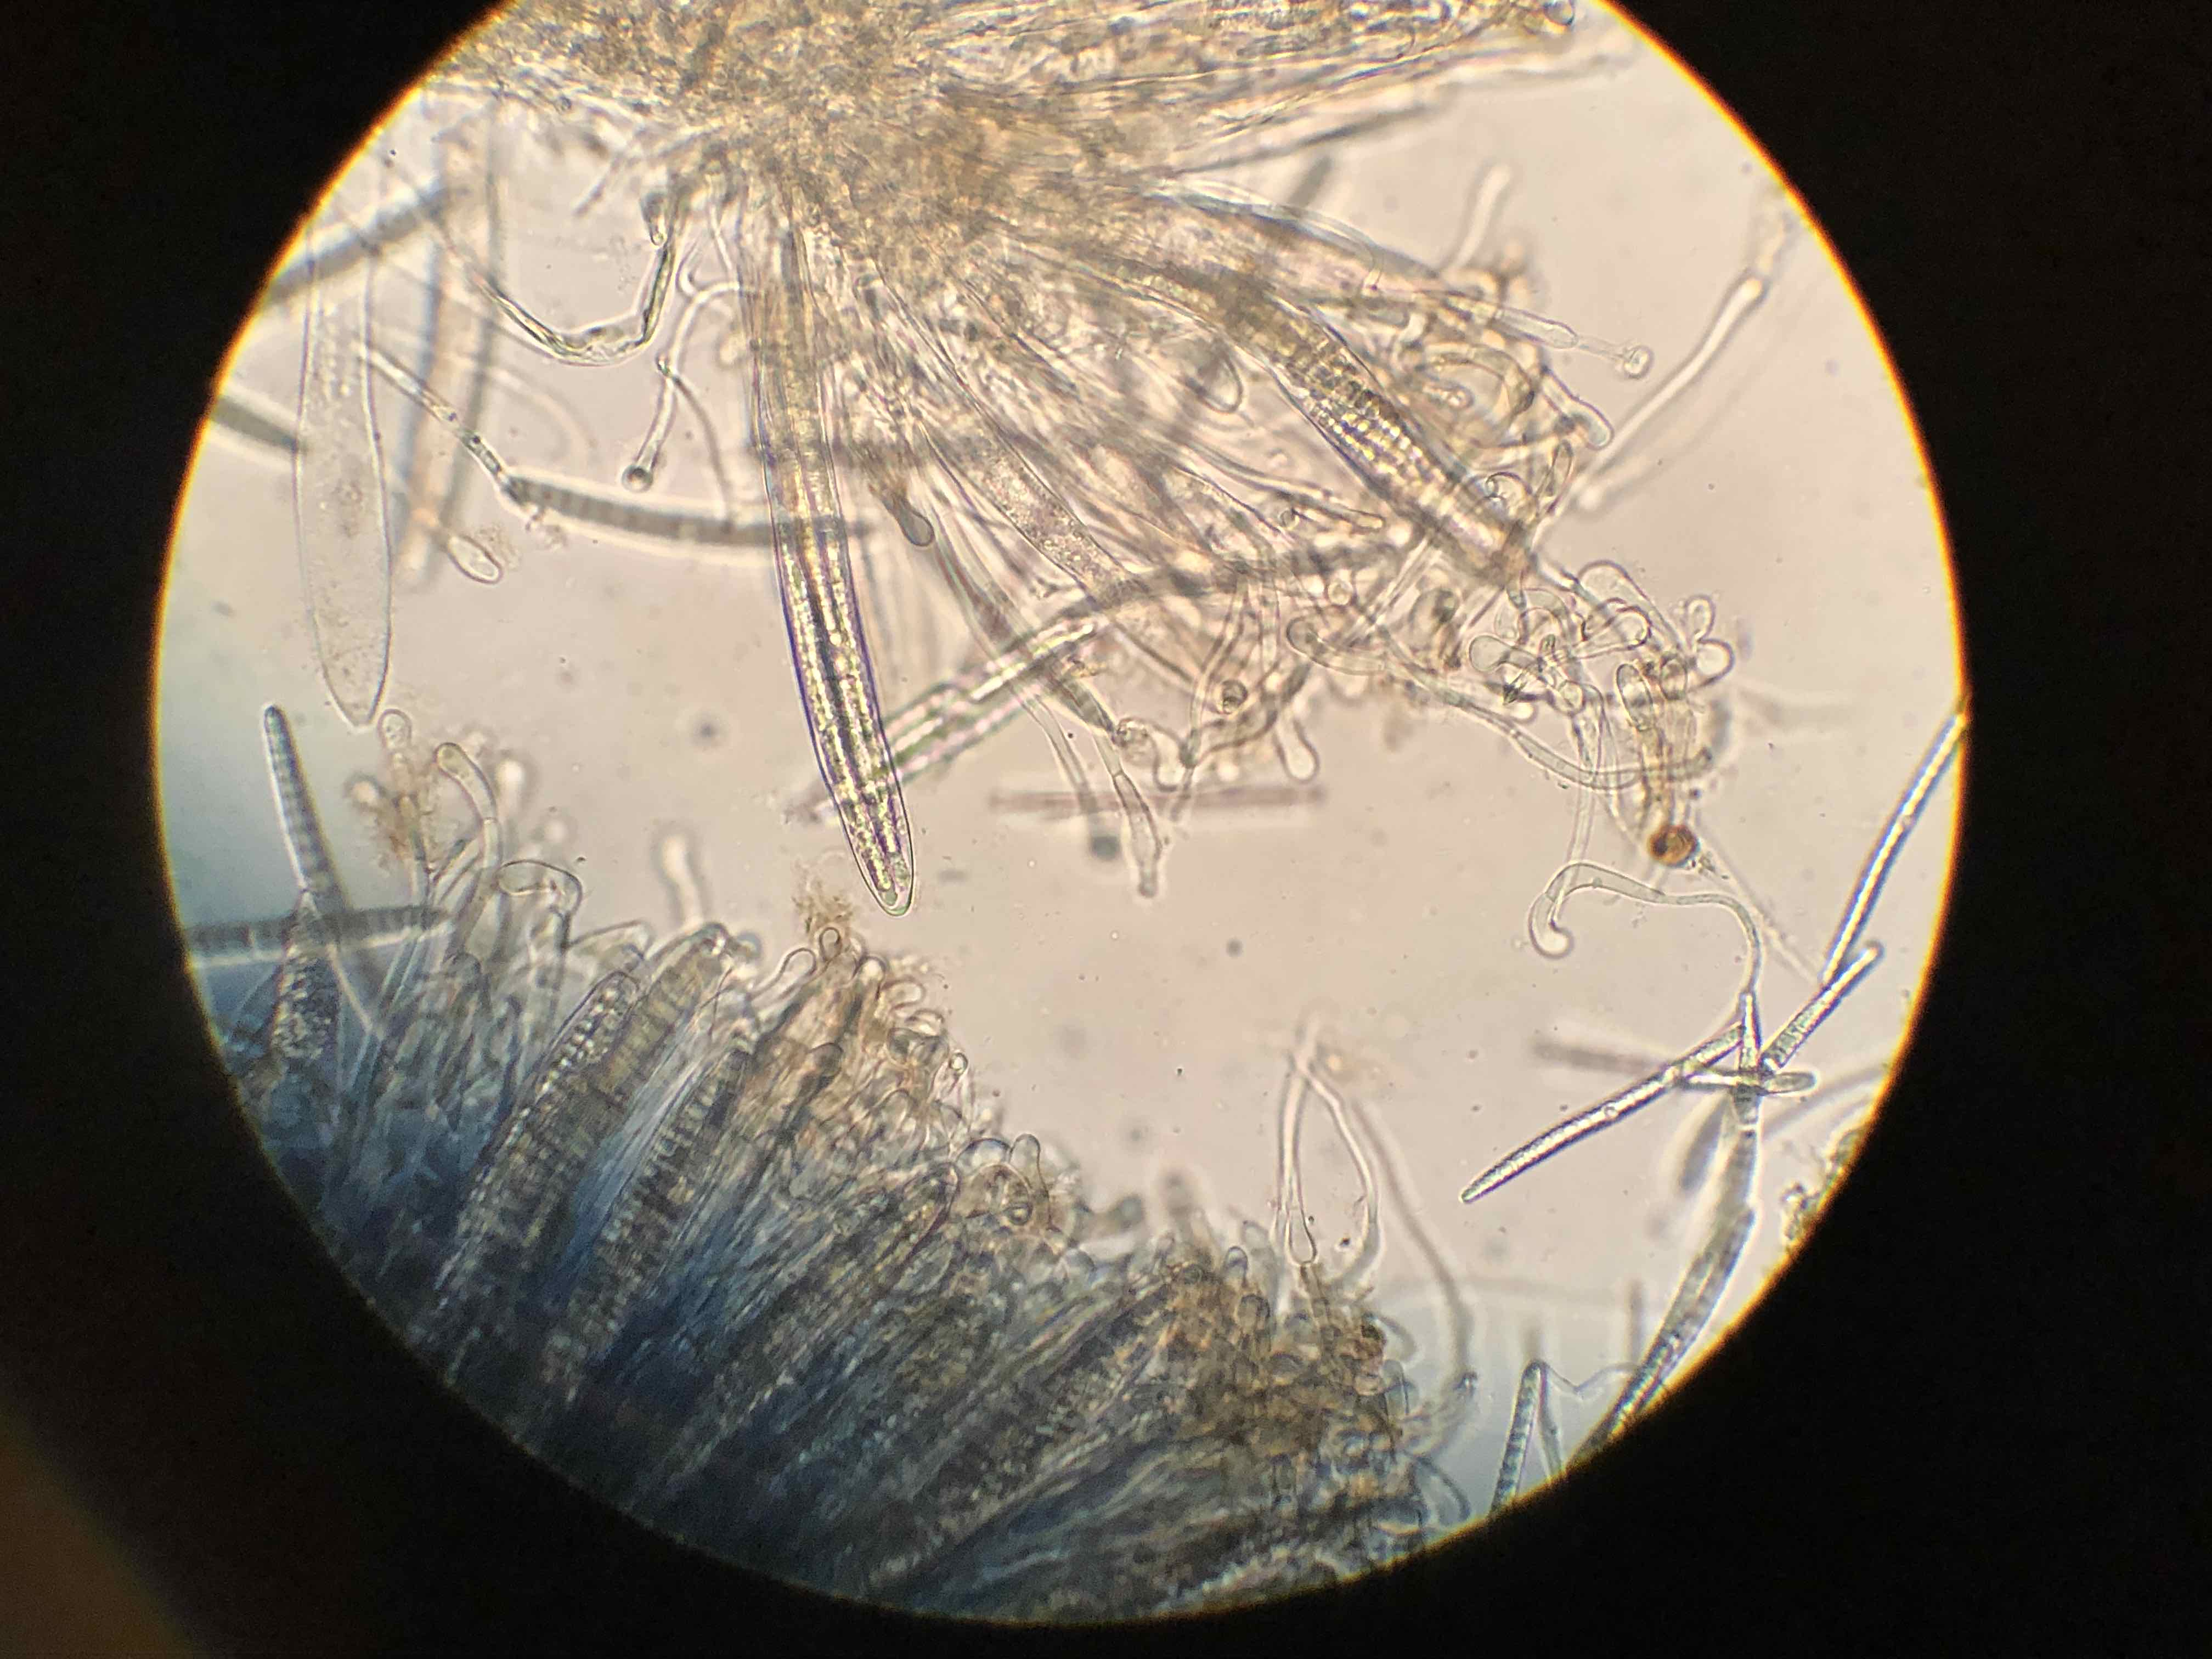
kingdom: Fungi
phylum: Ascomycota
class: Geoglossomycetes
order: Geoglossales
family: Geoglossaceae
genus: Geoglossum
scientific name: Geoglossum fallax
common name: småskællet jordtunge
